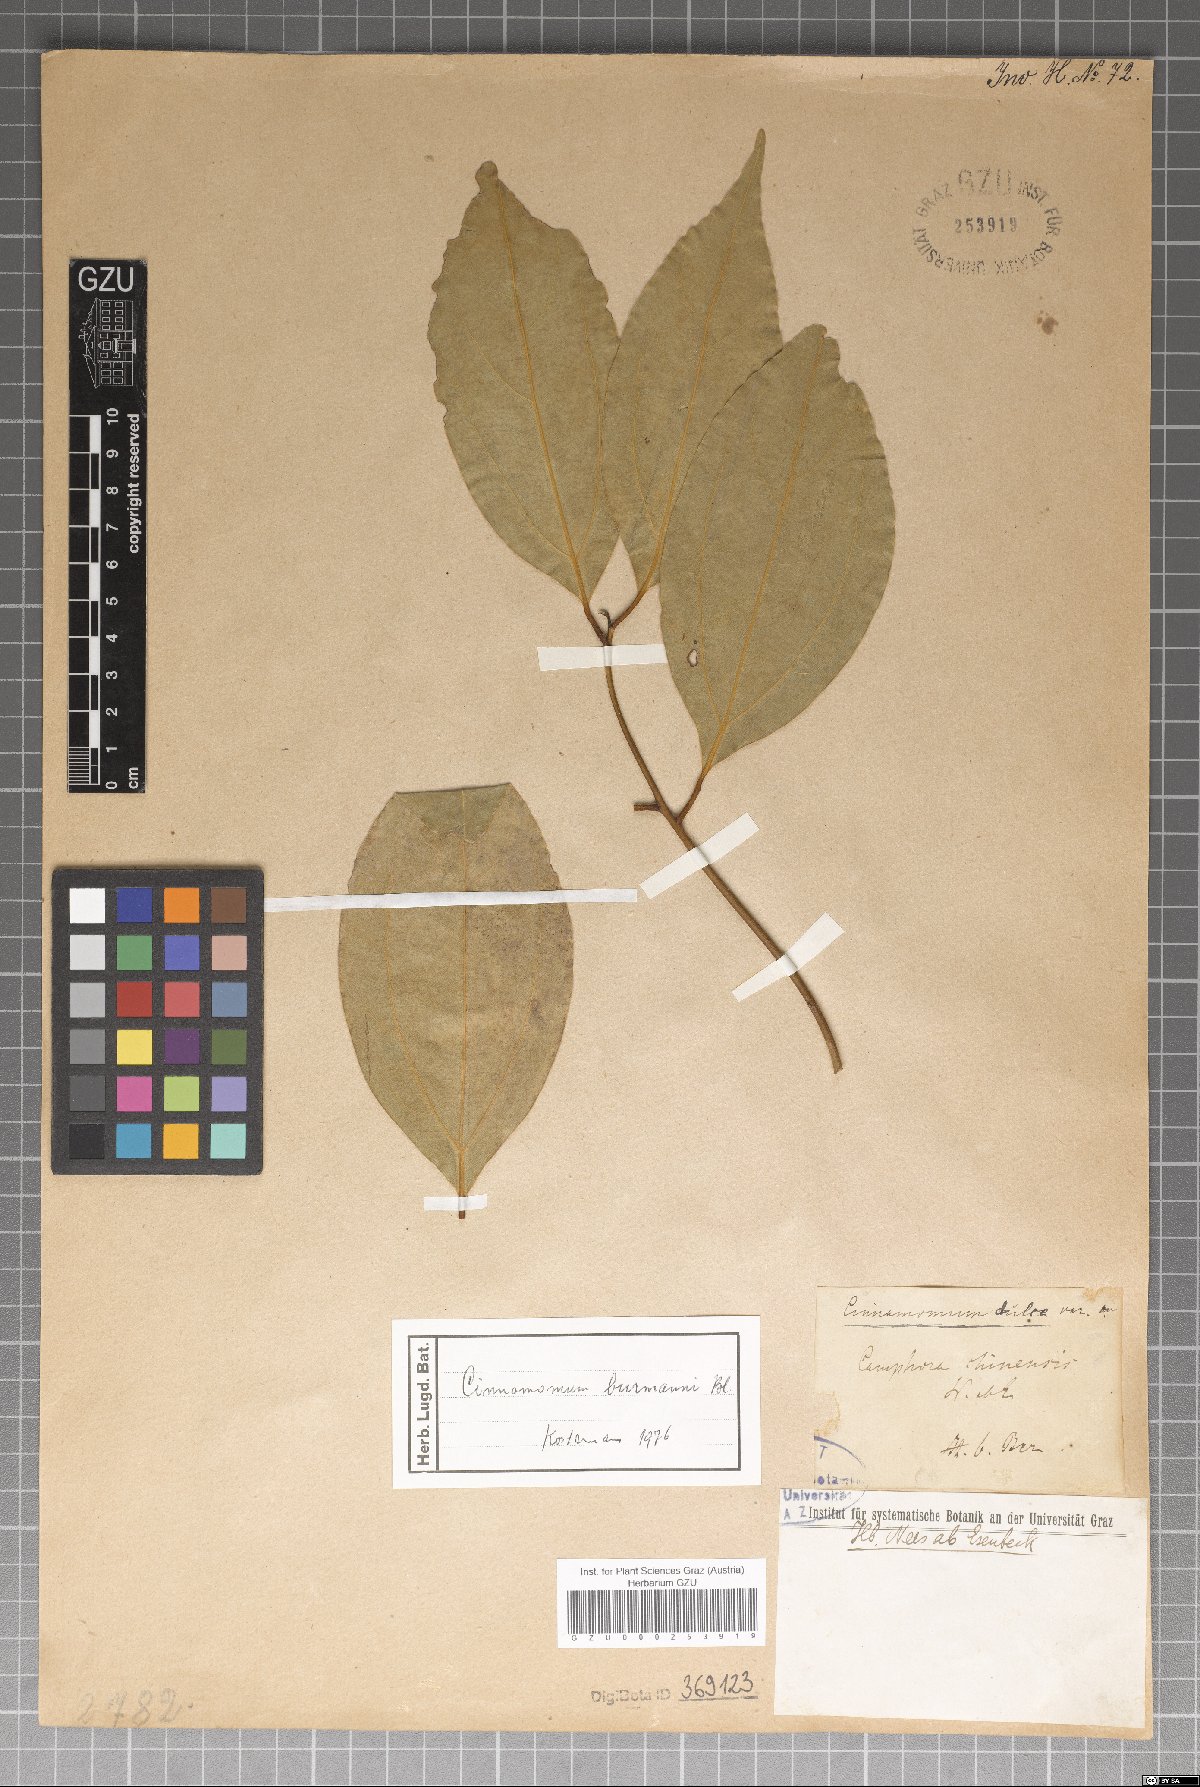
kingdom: Plantae
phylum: Tracheophyta
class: Magnoliopsida
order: Laurales
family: Lauraceae
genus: Cinnamomum
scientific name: Cinnamomum burmanni
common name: Padang cassia
